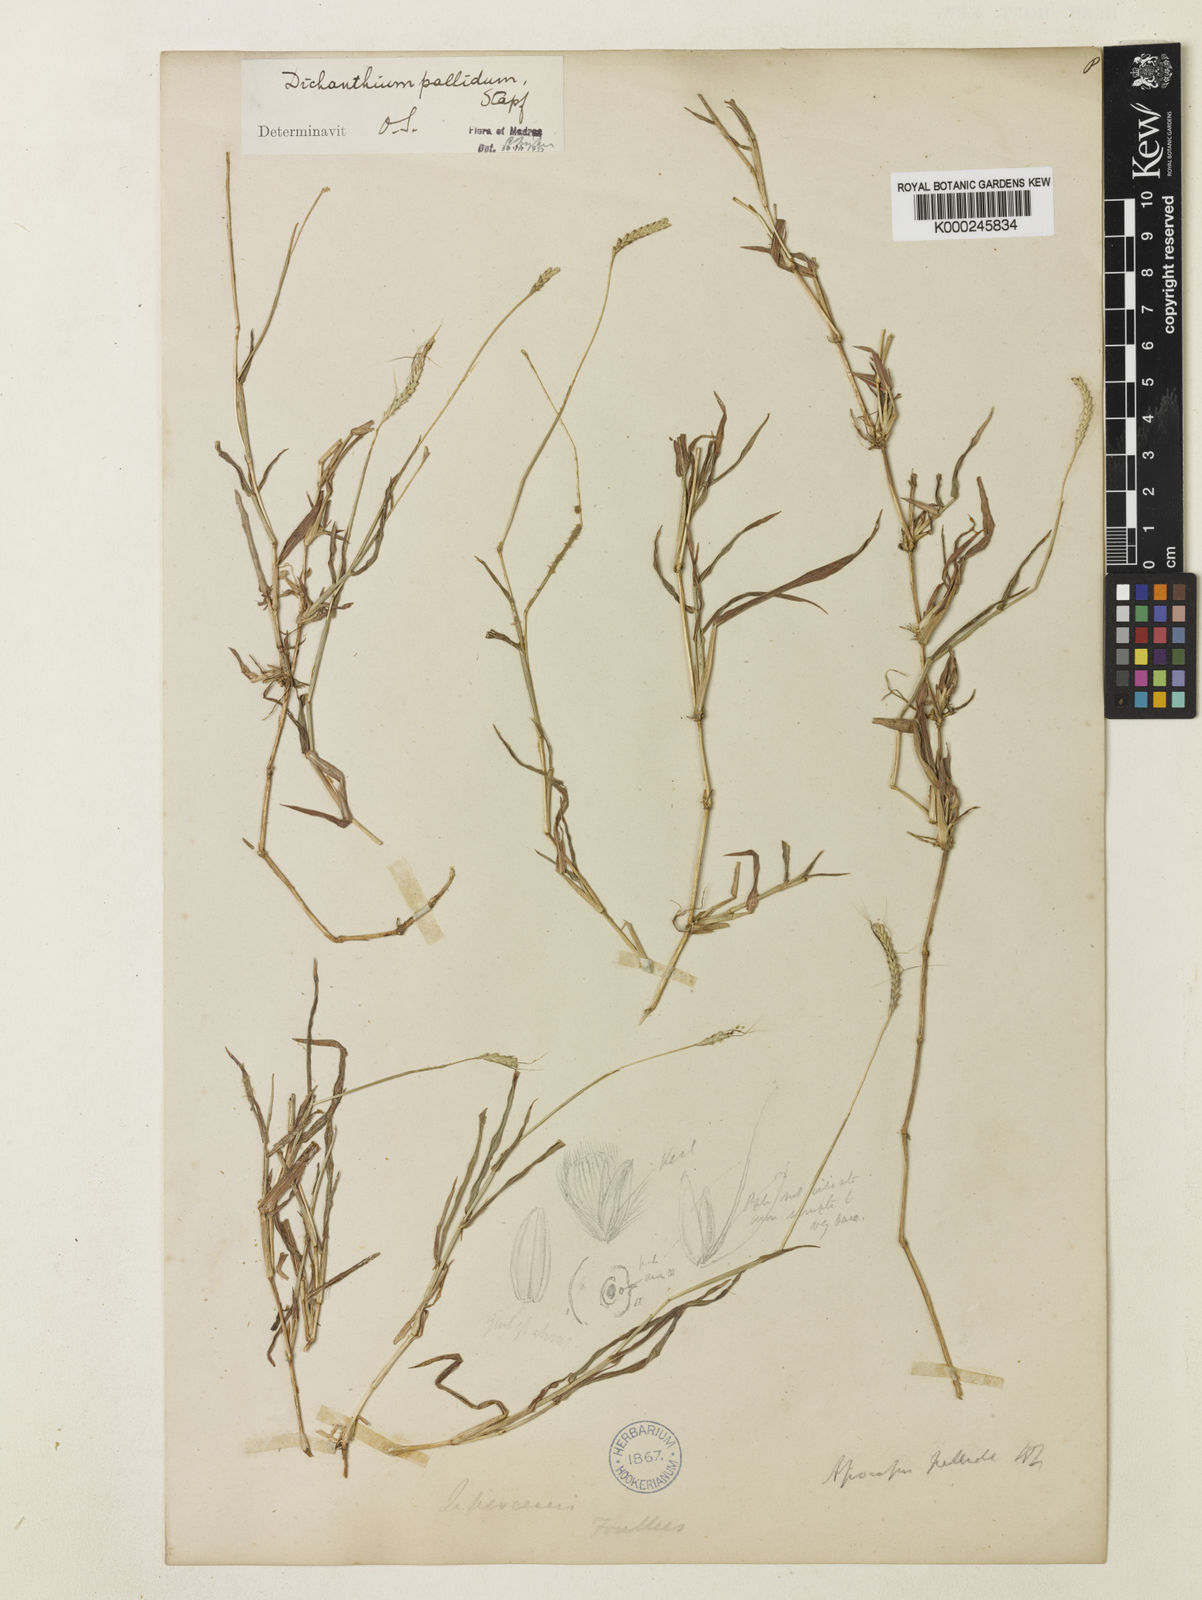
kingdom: Plantae
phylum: Tracheophyta
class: Liliopsida
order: Poales
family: Poaceae
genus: Dichanthium
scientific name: Dichanthium caricosum
